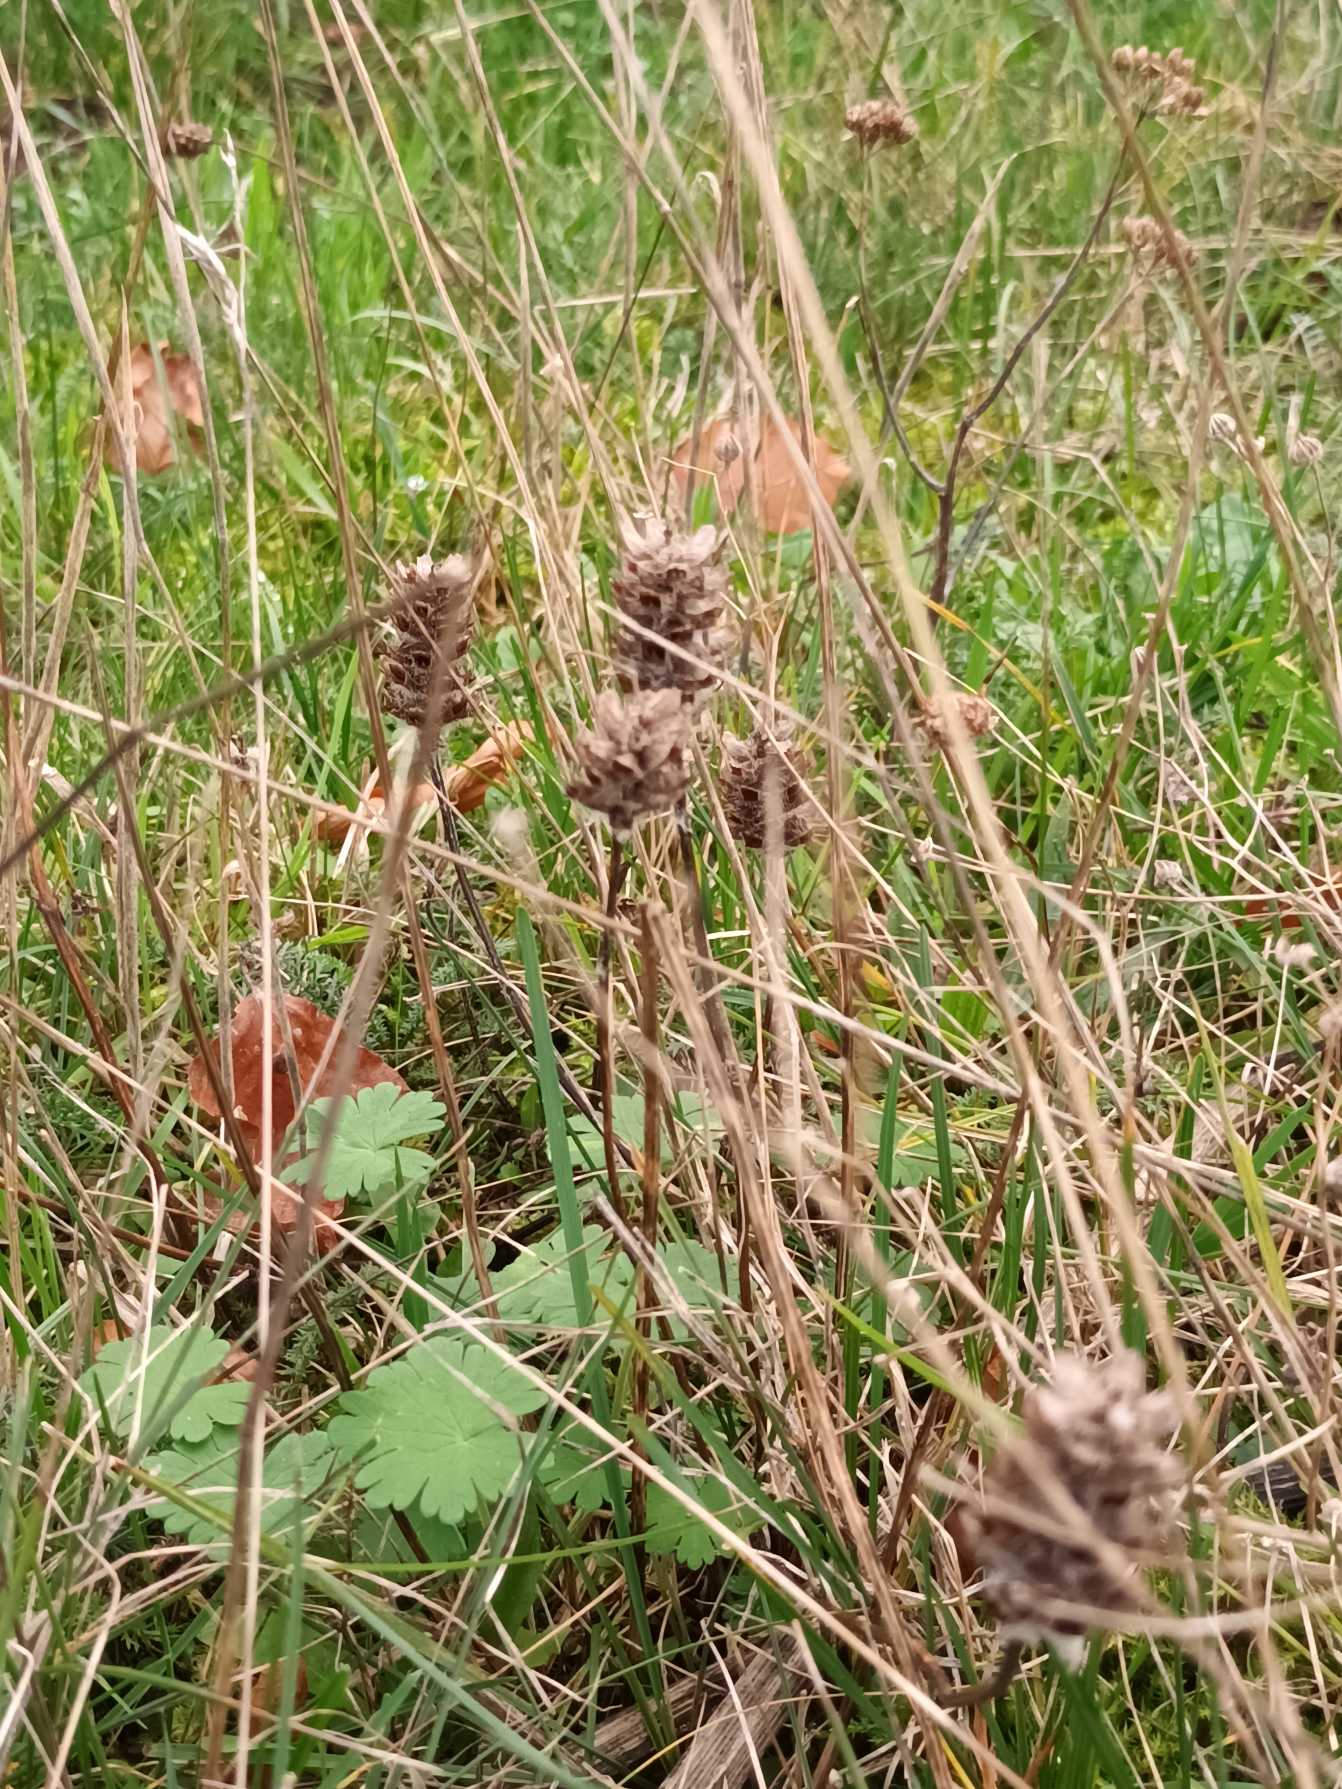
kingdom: Plantae
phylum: Tracheophyta
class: Magnoliopsida
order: Lamiales
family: Lamiaceae
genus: Prunella
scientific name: Prunella vulgaris
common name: Almindelig brunelle
